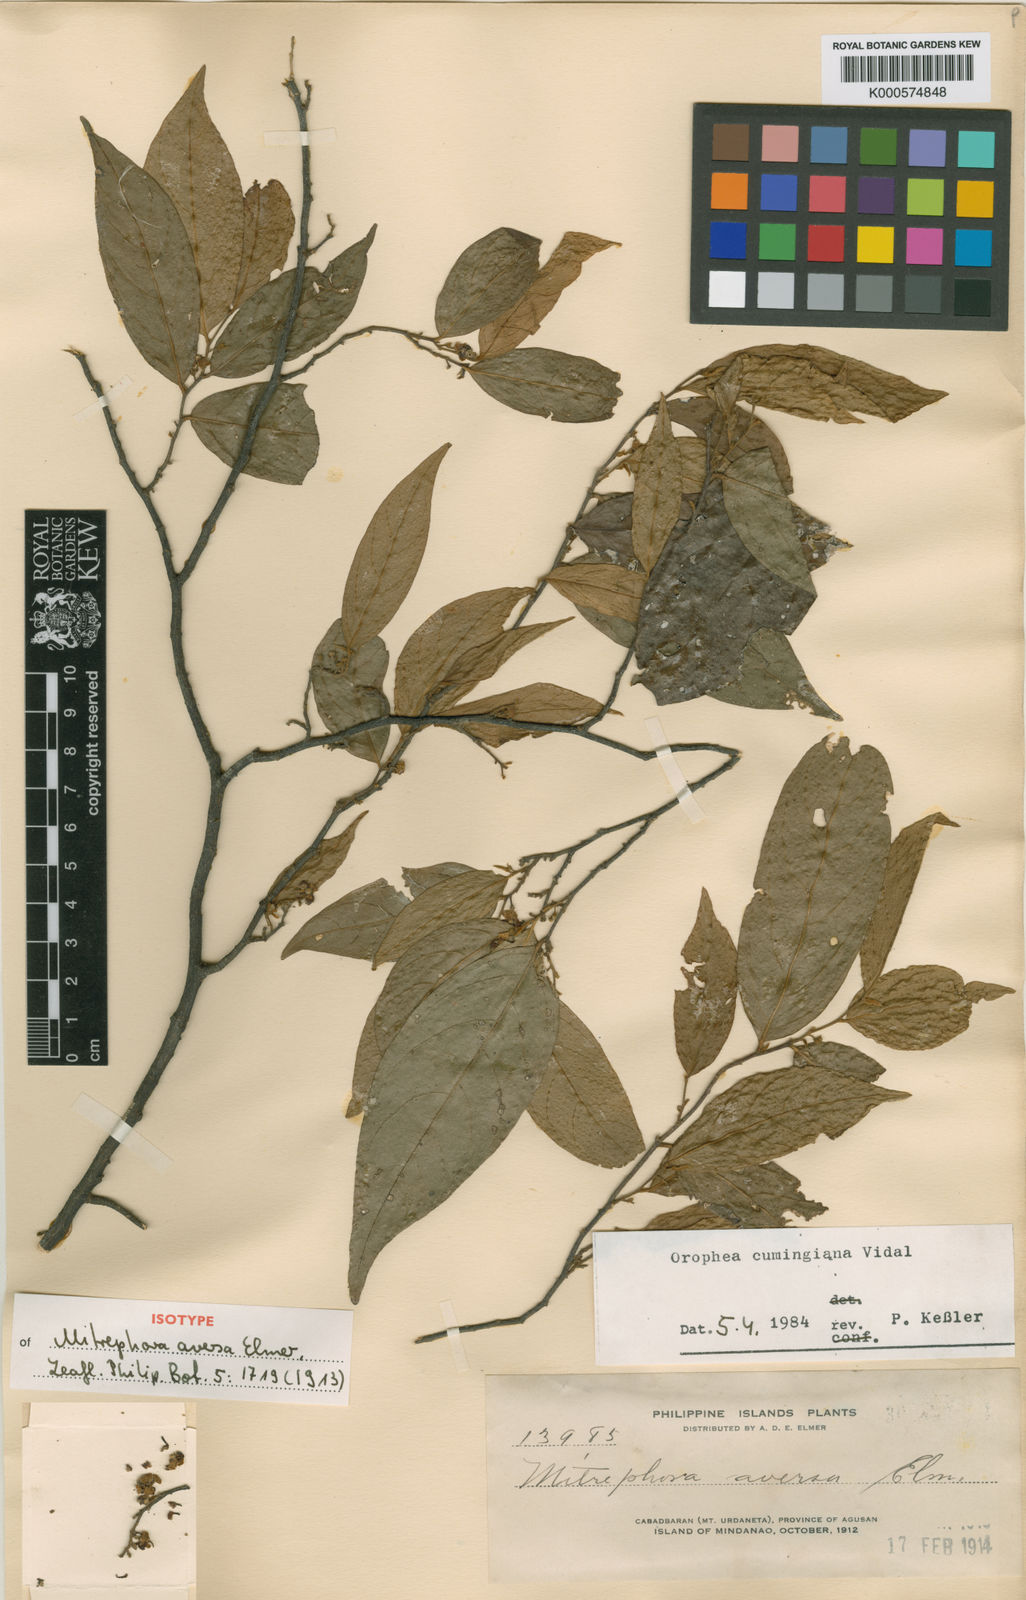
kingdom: Plantae
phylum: Tracheophyta
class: Magnoliopsida
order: Magnoliales
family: Annonaceae
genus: Orophea
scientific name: Orophea cumingiana
